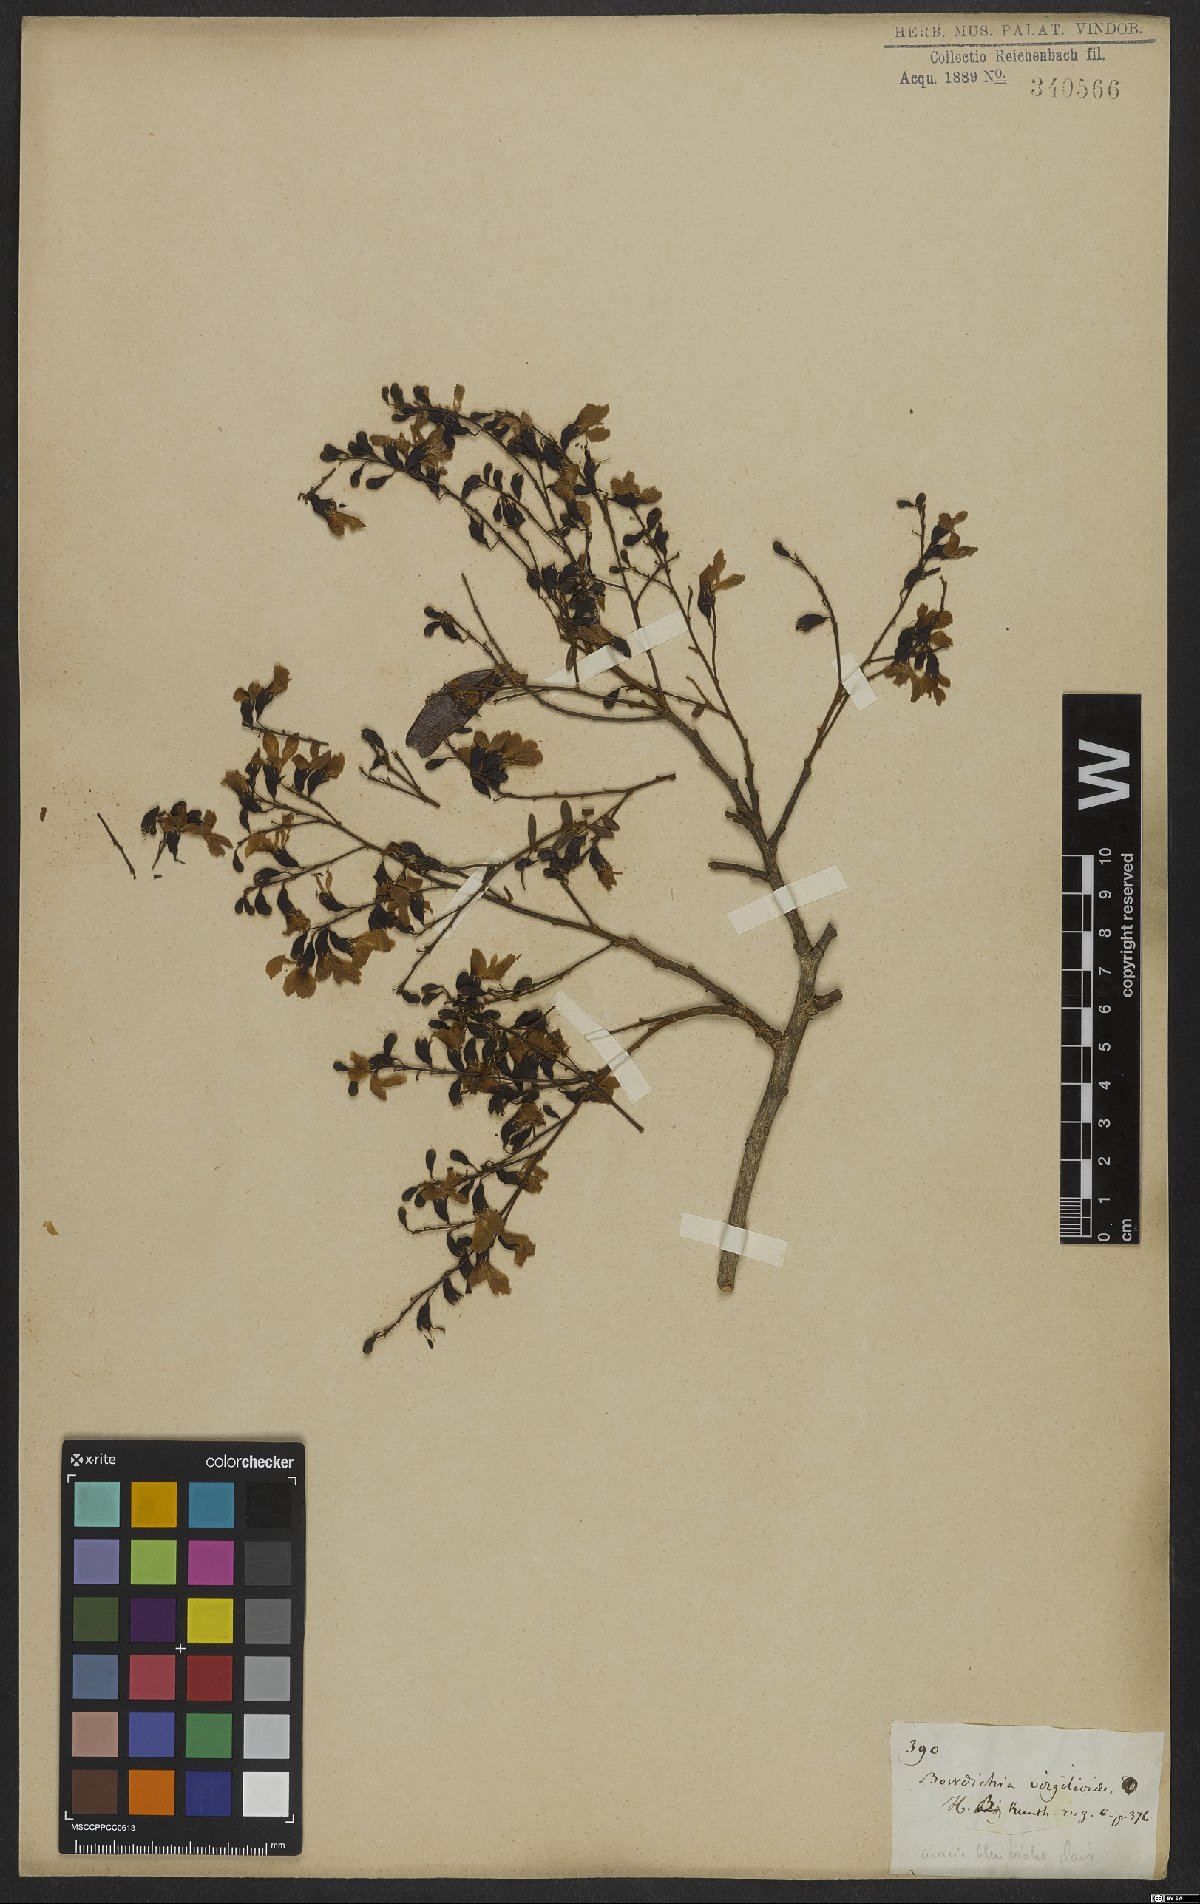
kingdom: Plantae
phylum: Tracheophyta
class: Magnoliopsida
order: Fabales
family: Fabaceae
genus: Bowdichia
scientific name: Bowdichia virgilioides
